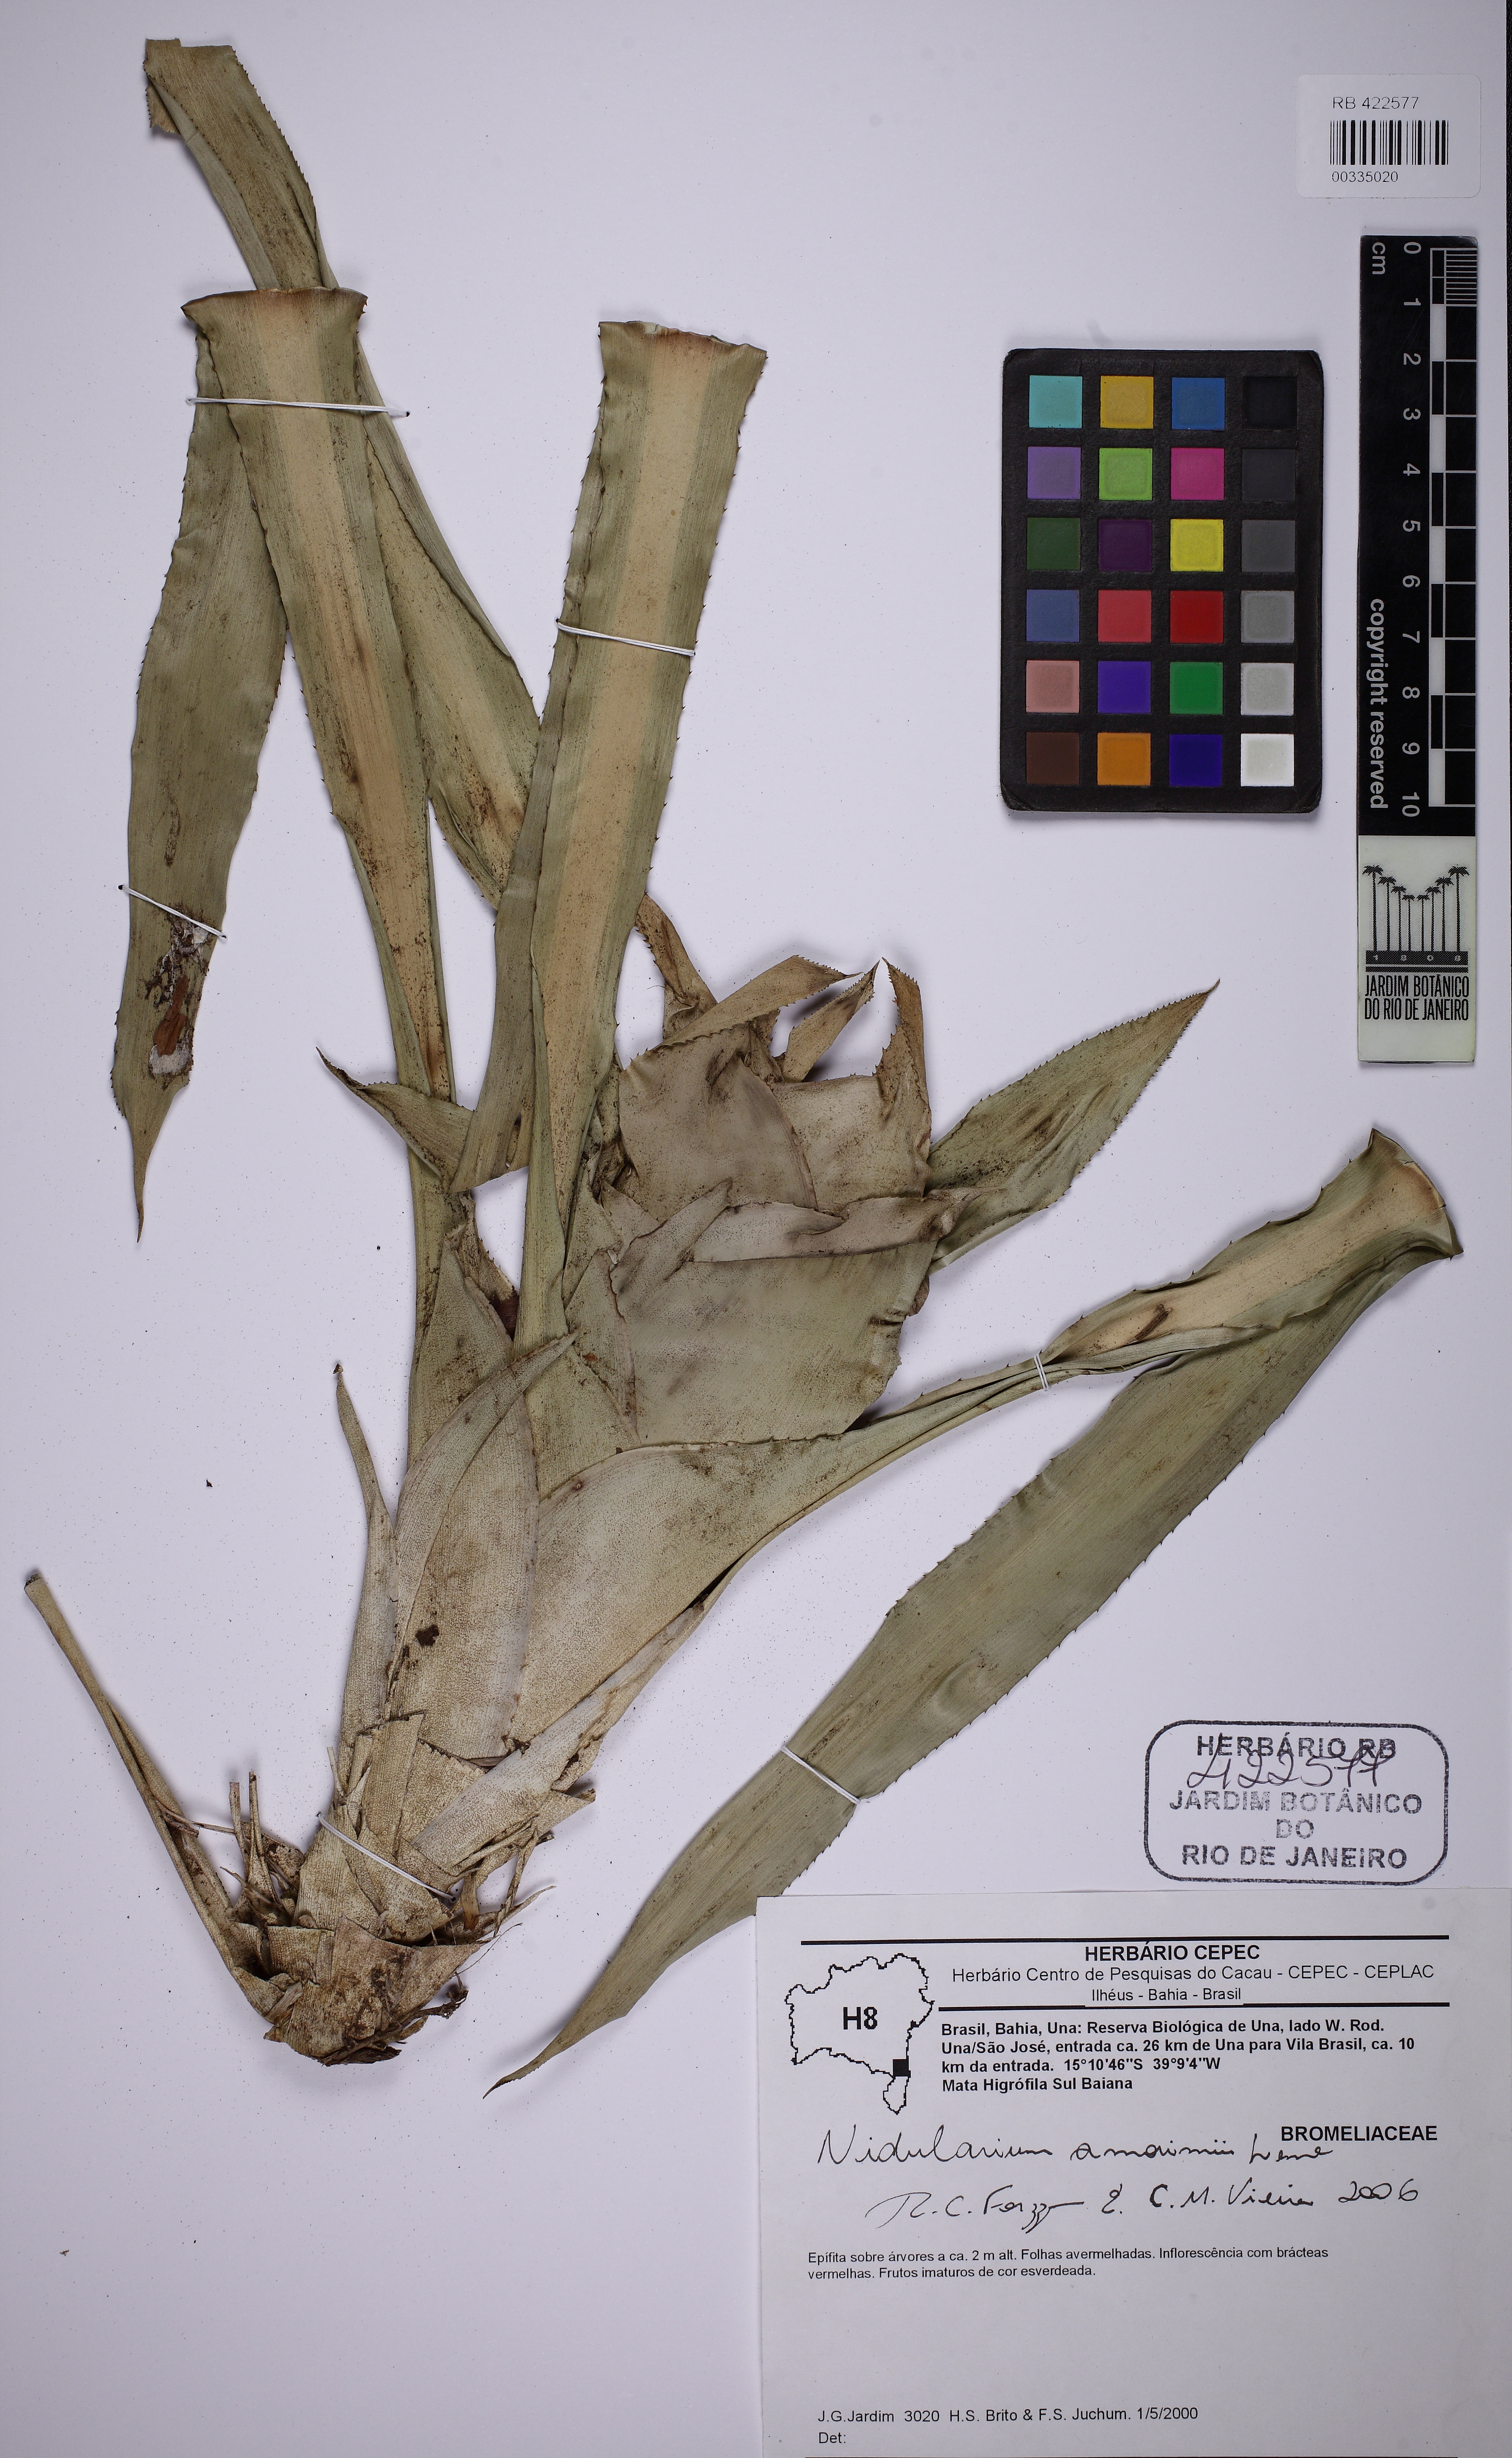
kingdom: Plantae
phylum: Tracheophyta
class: Liliopsida
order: Poales
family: Bromeliaceae
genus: Nidularium
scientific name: Nidularium amorimii
